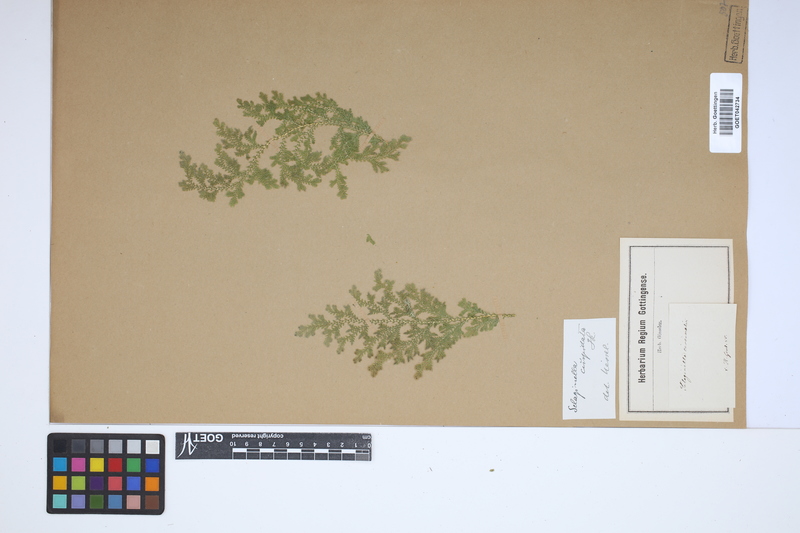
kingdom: Plantae
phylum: Tracheophyta
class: Lycopodiopsida
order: Selaginellales
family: Selaginellaceae
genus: Selaginella
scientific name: Selaginella pallescens
